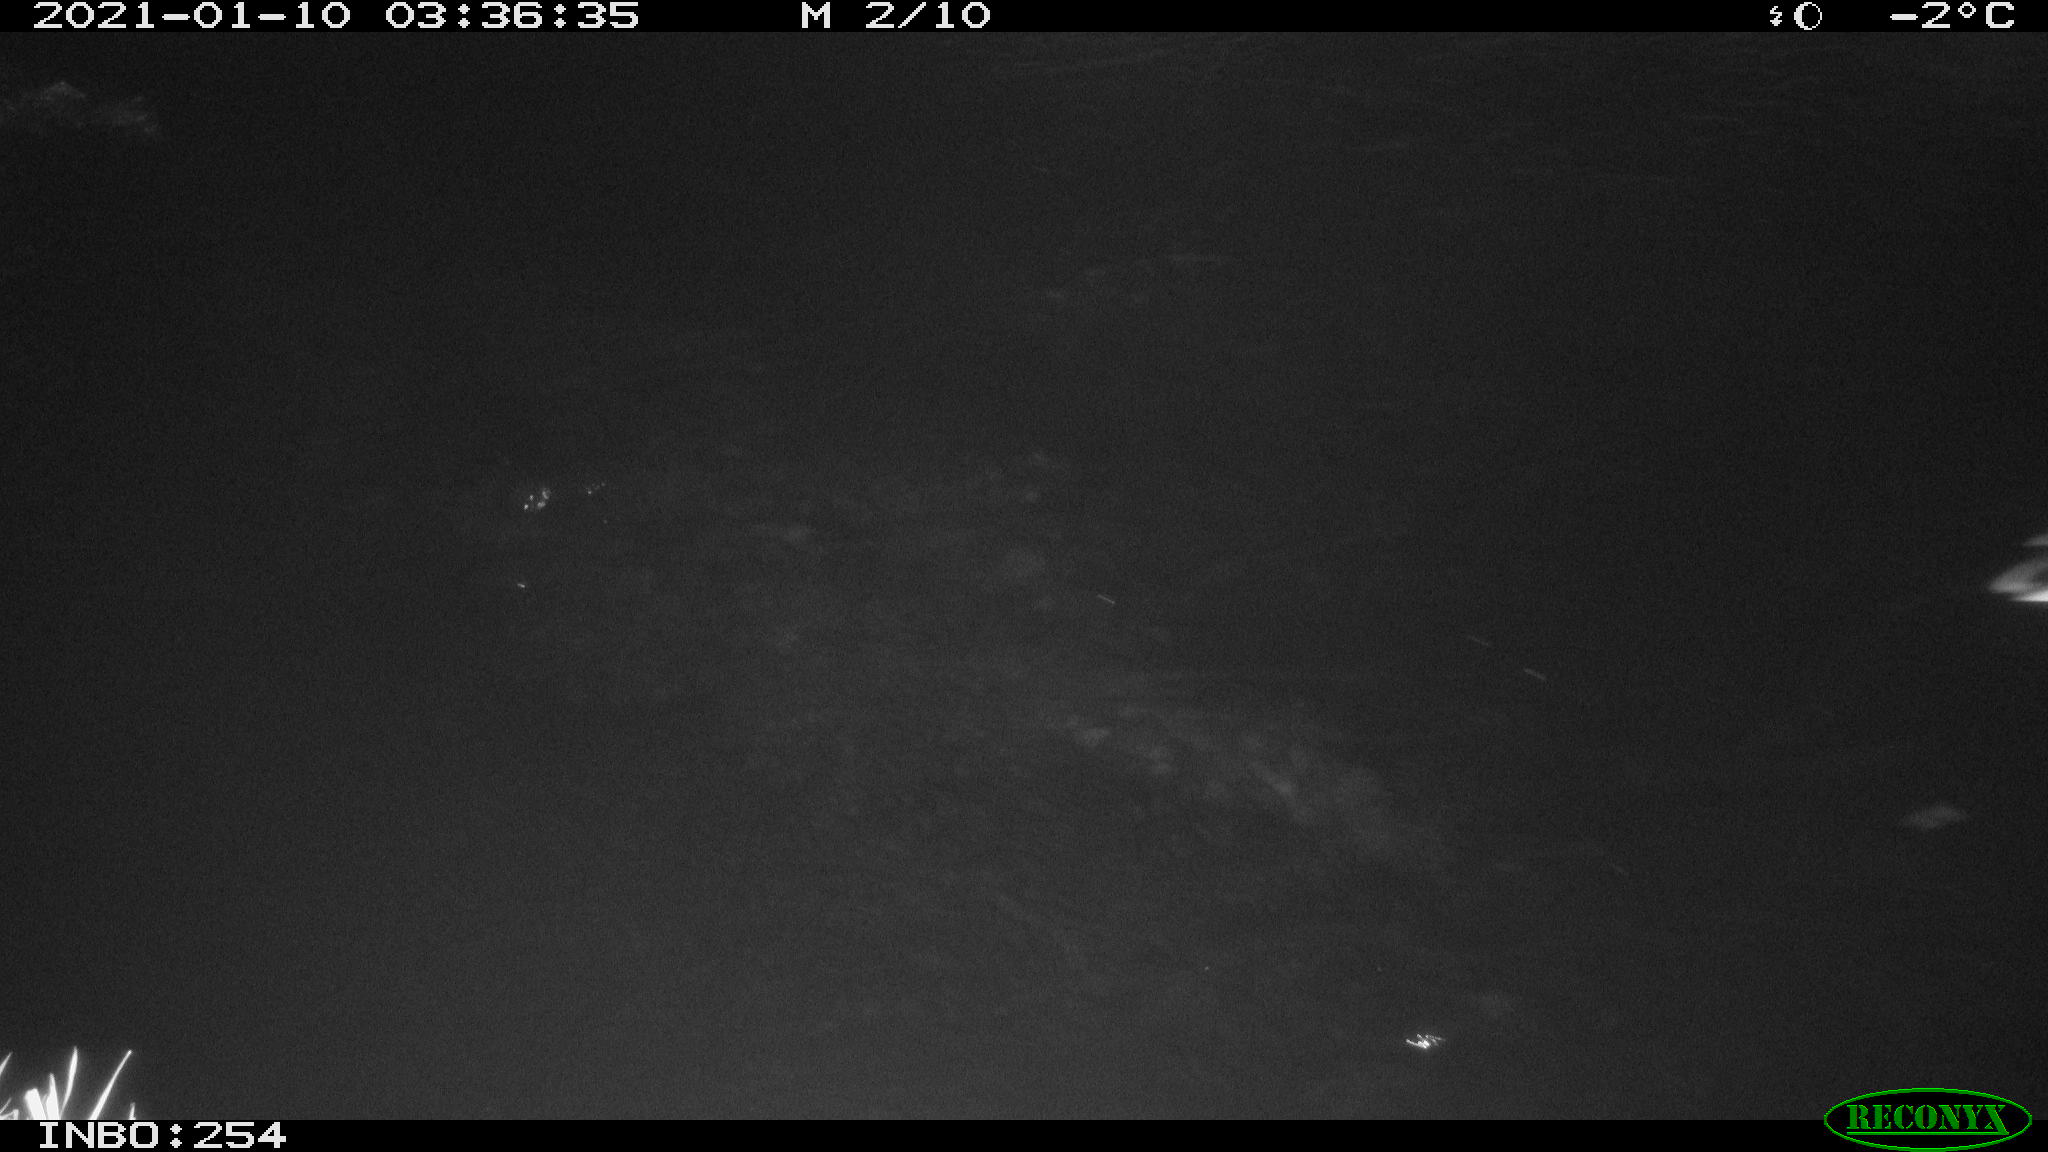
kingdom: Animalia
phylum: Chordata
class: Aves
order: Anseriformes
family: Anatidae
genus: Anas
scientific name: Anas platyrhynchos
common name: Mallard
